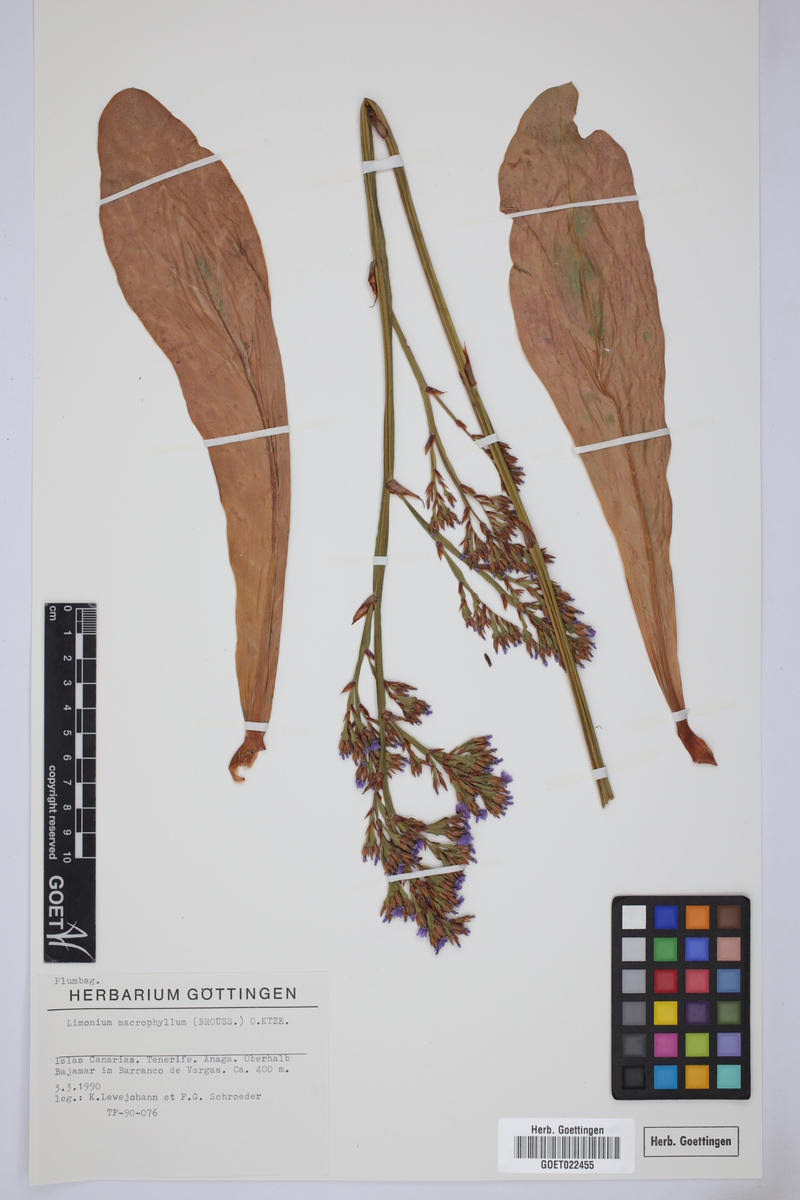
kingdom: Plantae
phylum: Tracheophyta
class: Magnoliopsida
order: Caryophyllales
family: Plumbaginaceae
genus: Limonium
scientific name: Limonium macrophyllum
